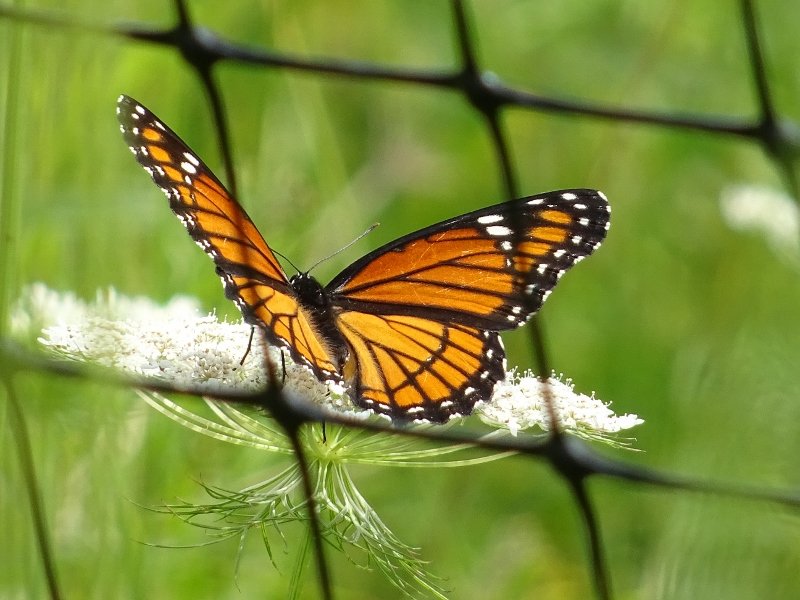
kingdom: Animalia
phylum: Arthropoda
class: Insecta
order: Lepidoptera
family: Nymphalidae
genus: Limenitis
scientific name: Limenitis archippus
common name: Viceroy
